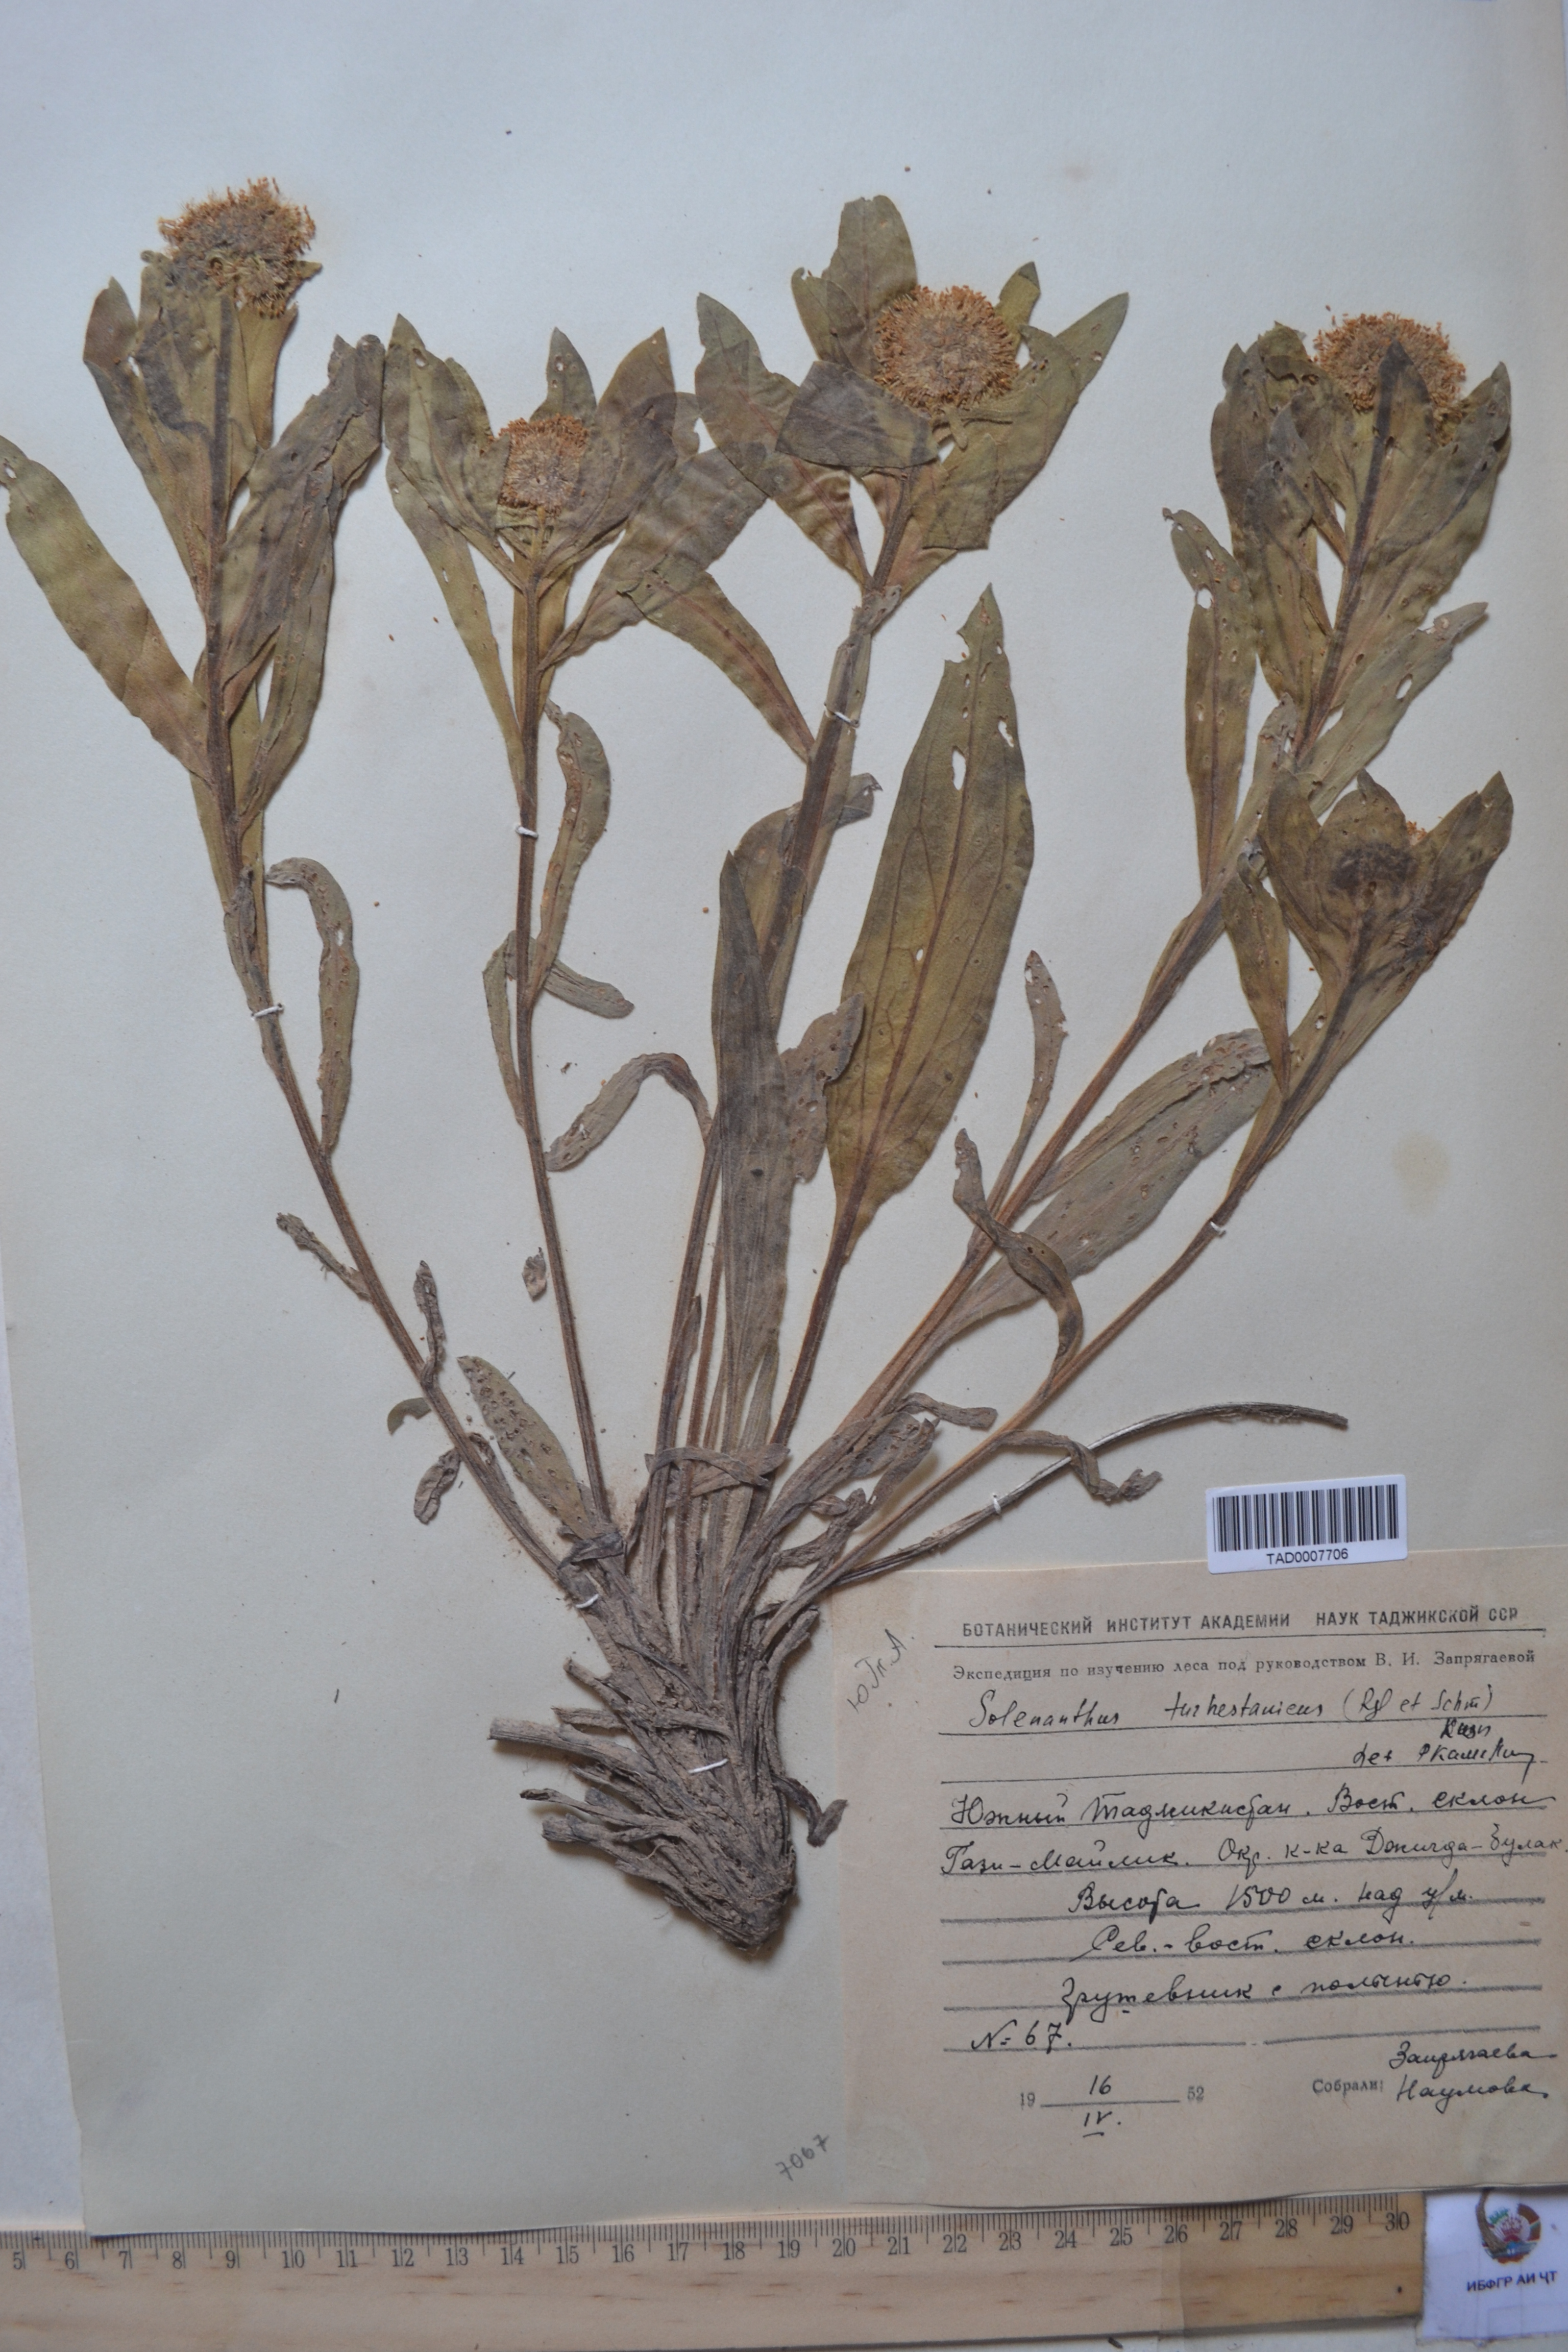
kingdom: Plantae
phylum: Tracheophyta
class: Magnoliopsida
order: Boraginales
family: Boraginaceae
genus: Solenanthus
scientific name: Solenanthus turkestanicus
